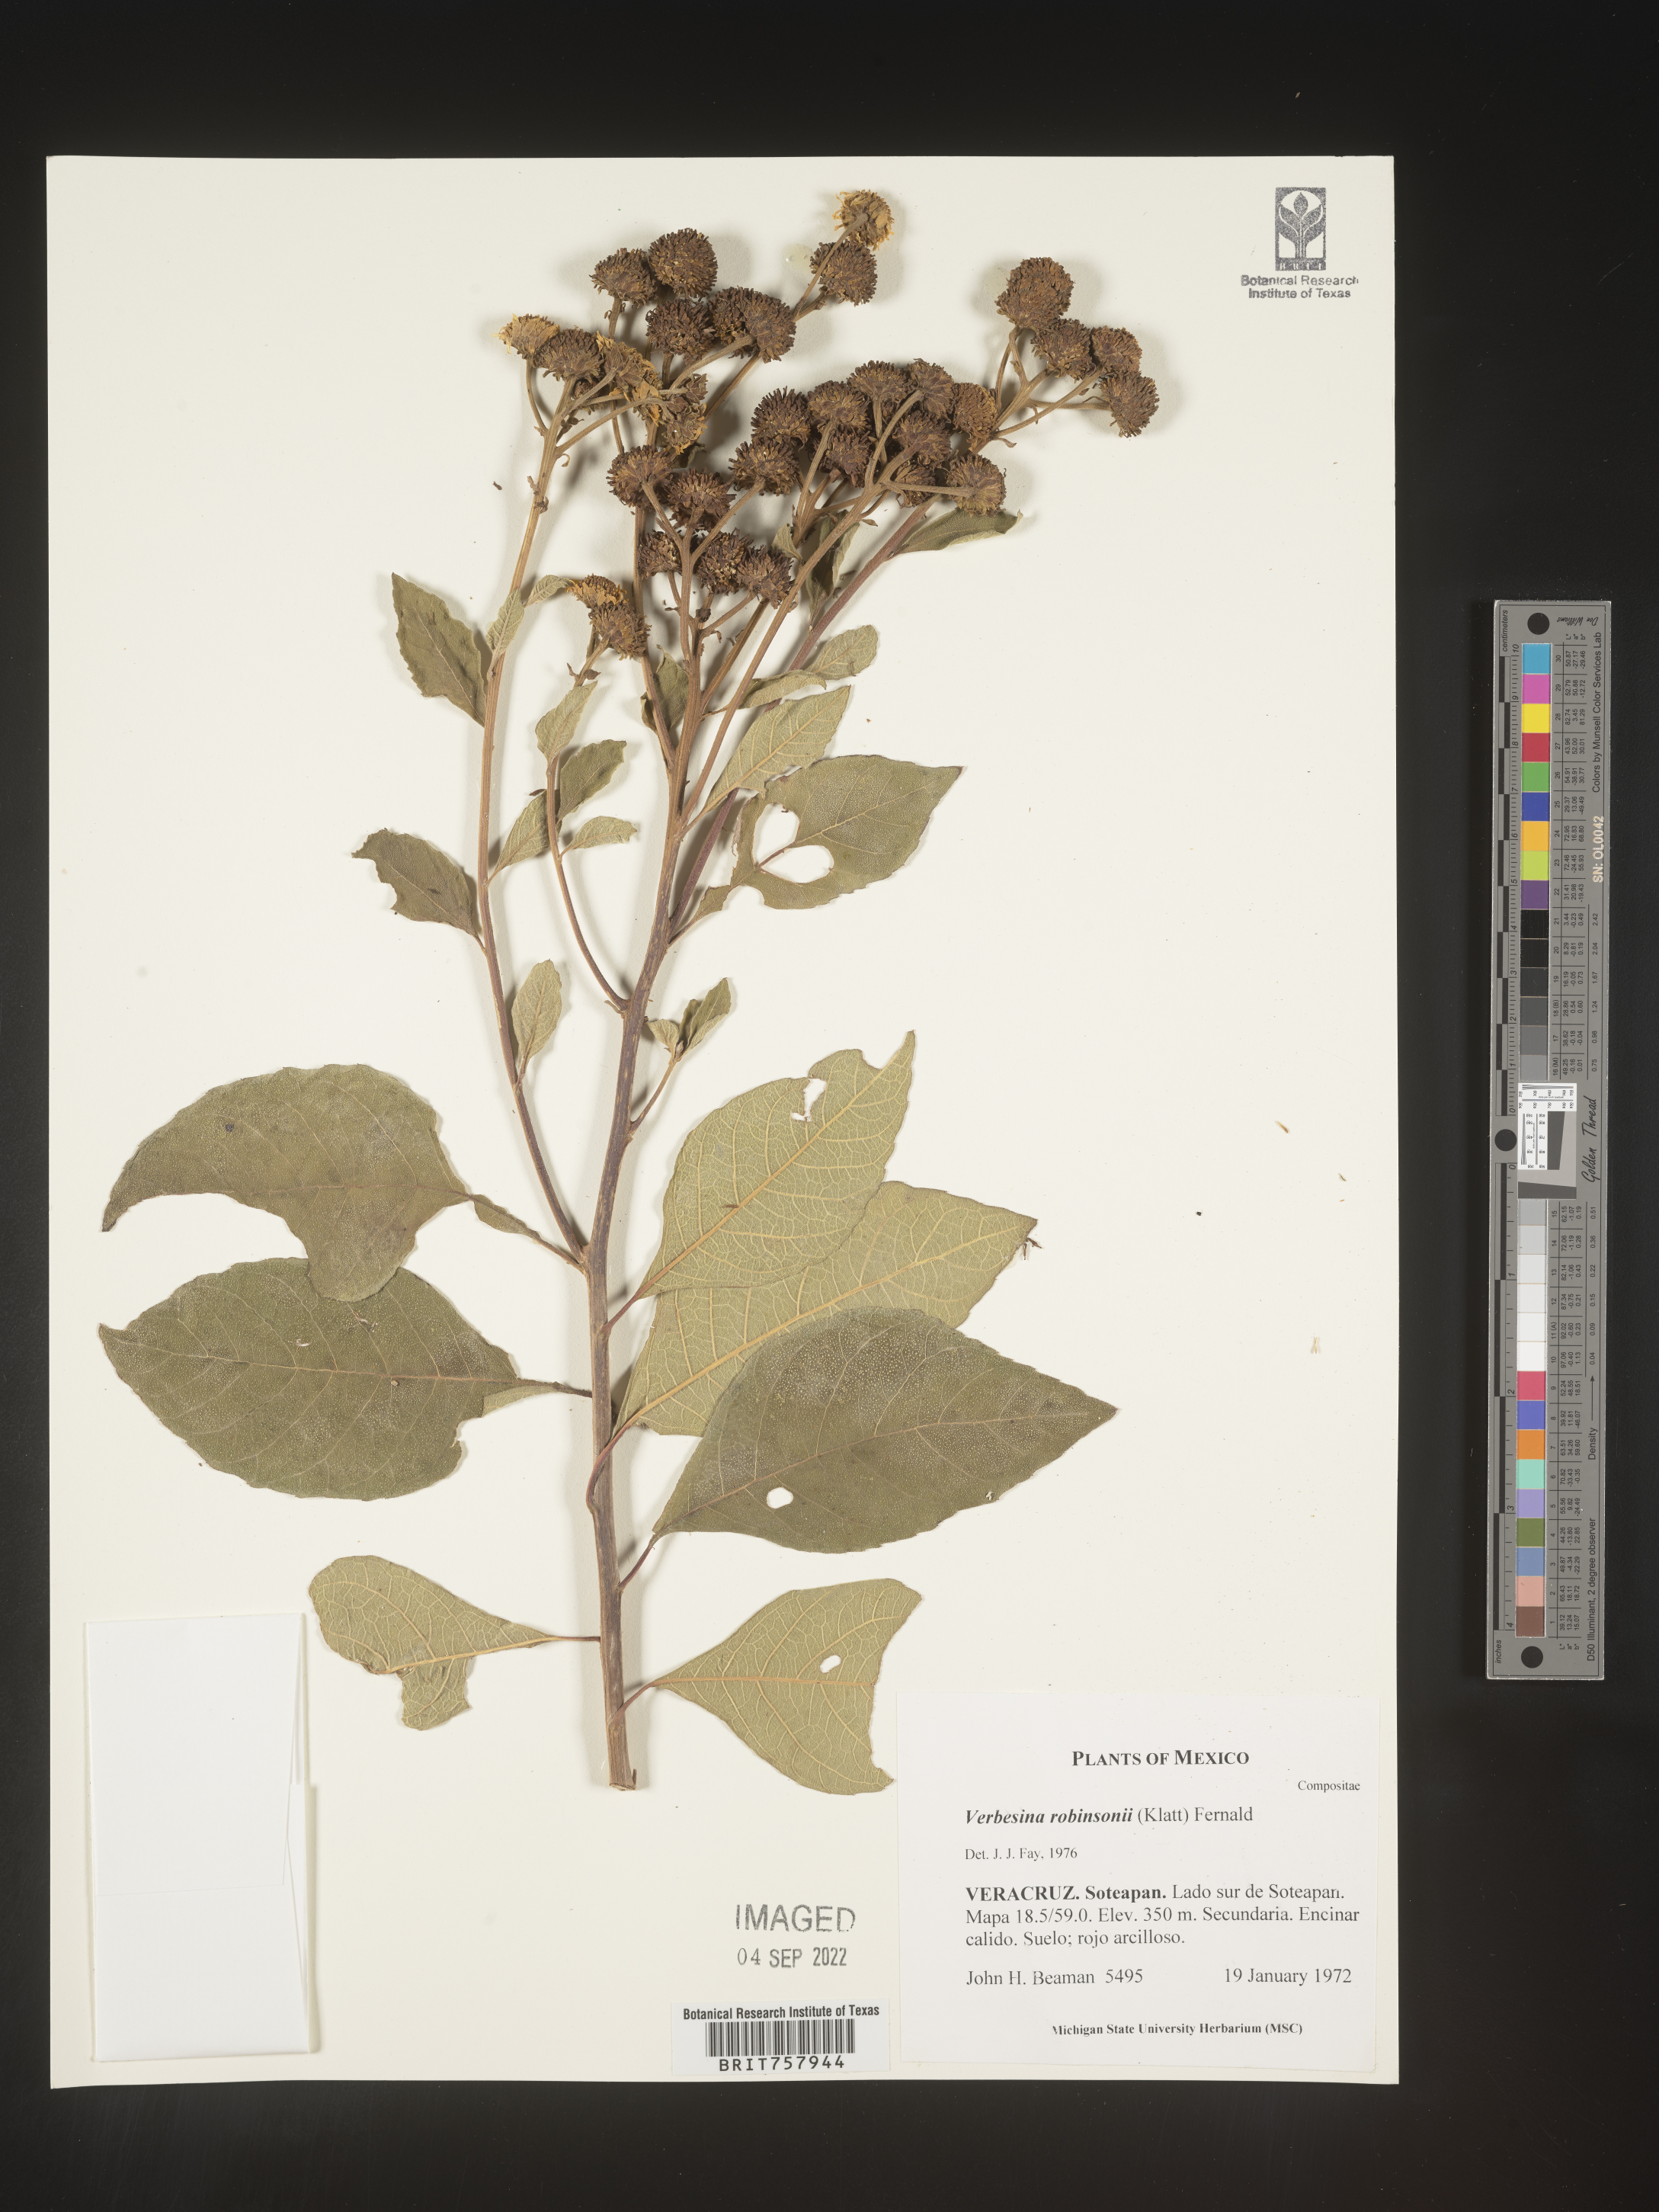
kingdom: Plantae
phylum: Tracheophyta
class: Magnoliopsida
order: Asterales
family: Asteraceae
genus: Verbesina
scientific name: Verbesina
